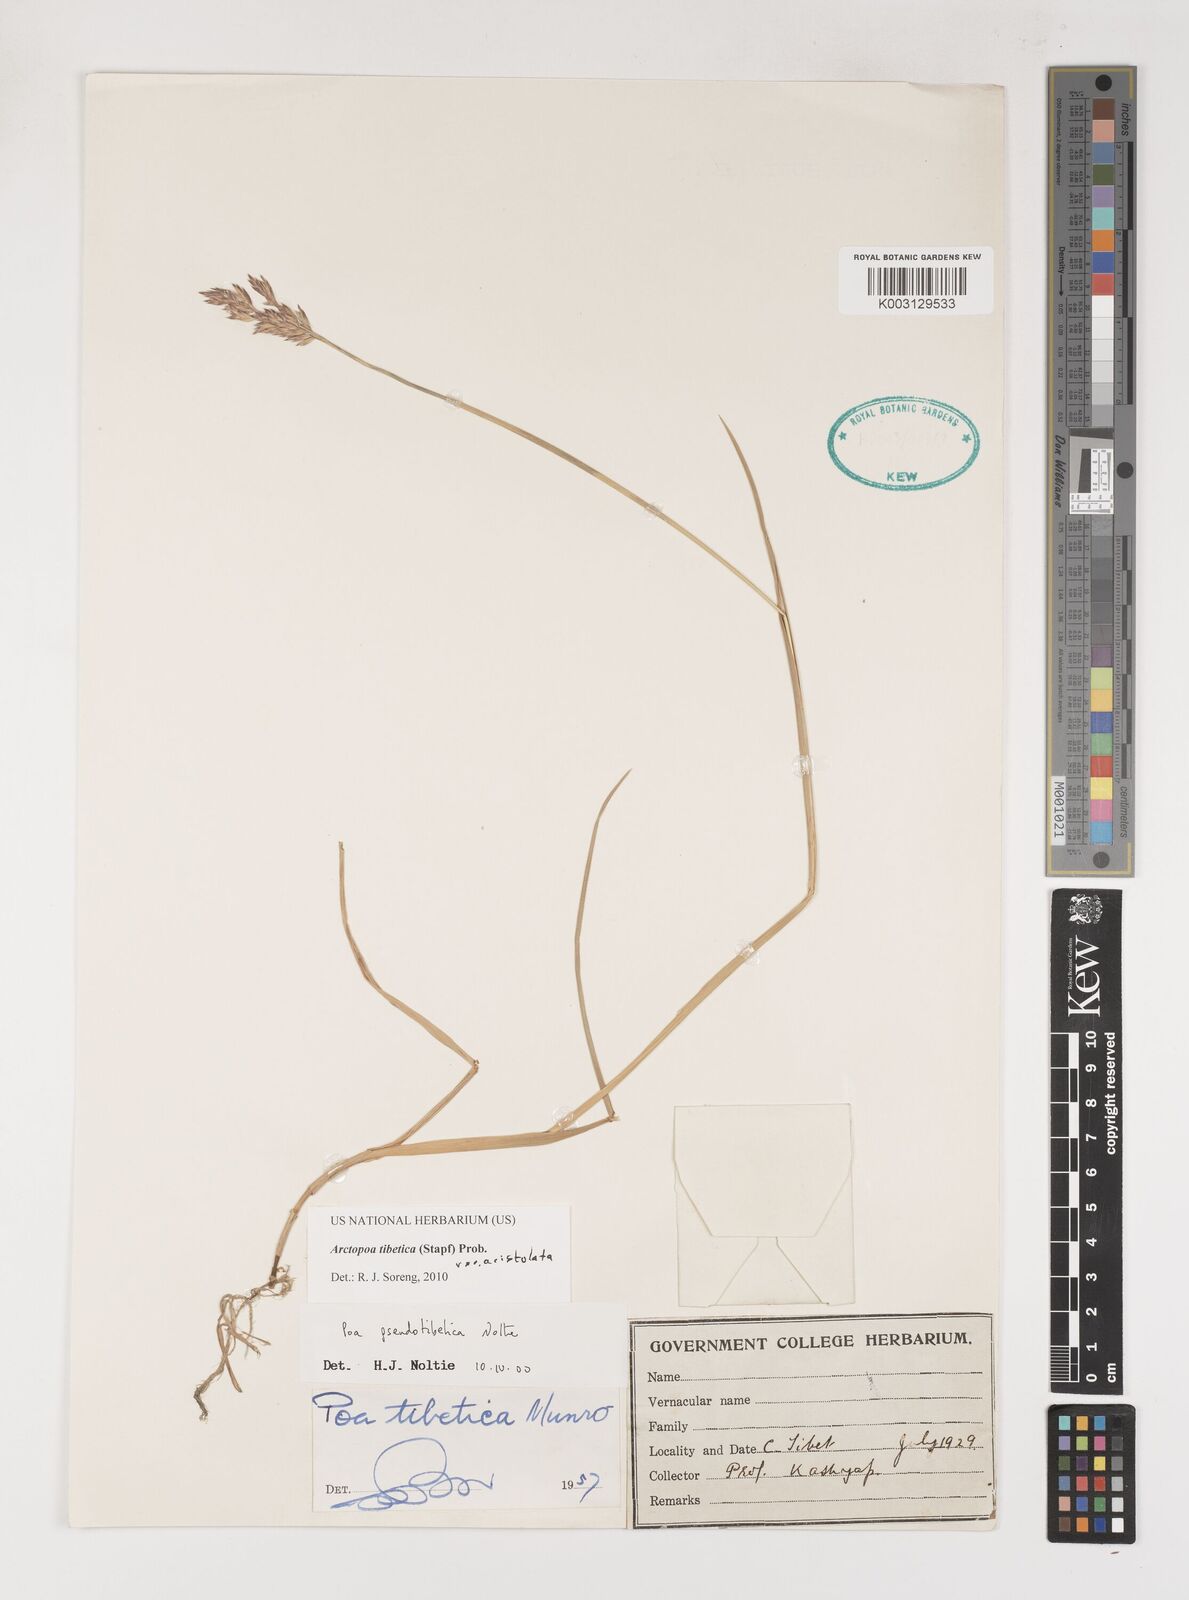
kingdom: Plantae
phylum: Tracheophyta
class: Liliopsida
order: Poales
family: Poaceae
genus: Arctopoa
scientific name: Arctopoa tibetica
